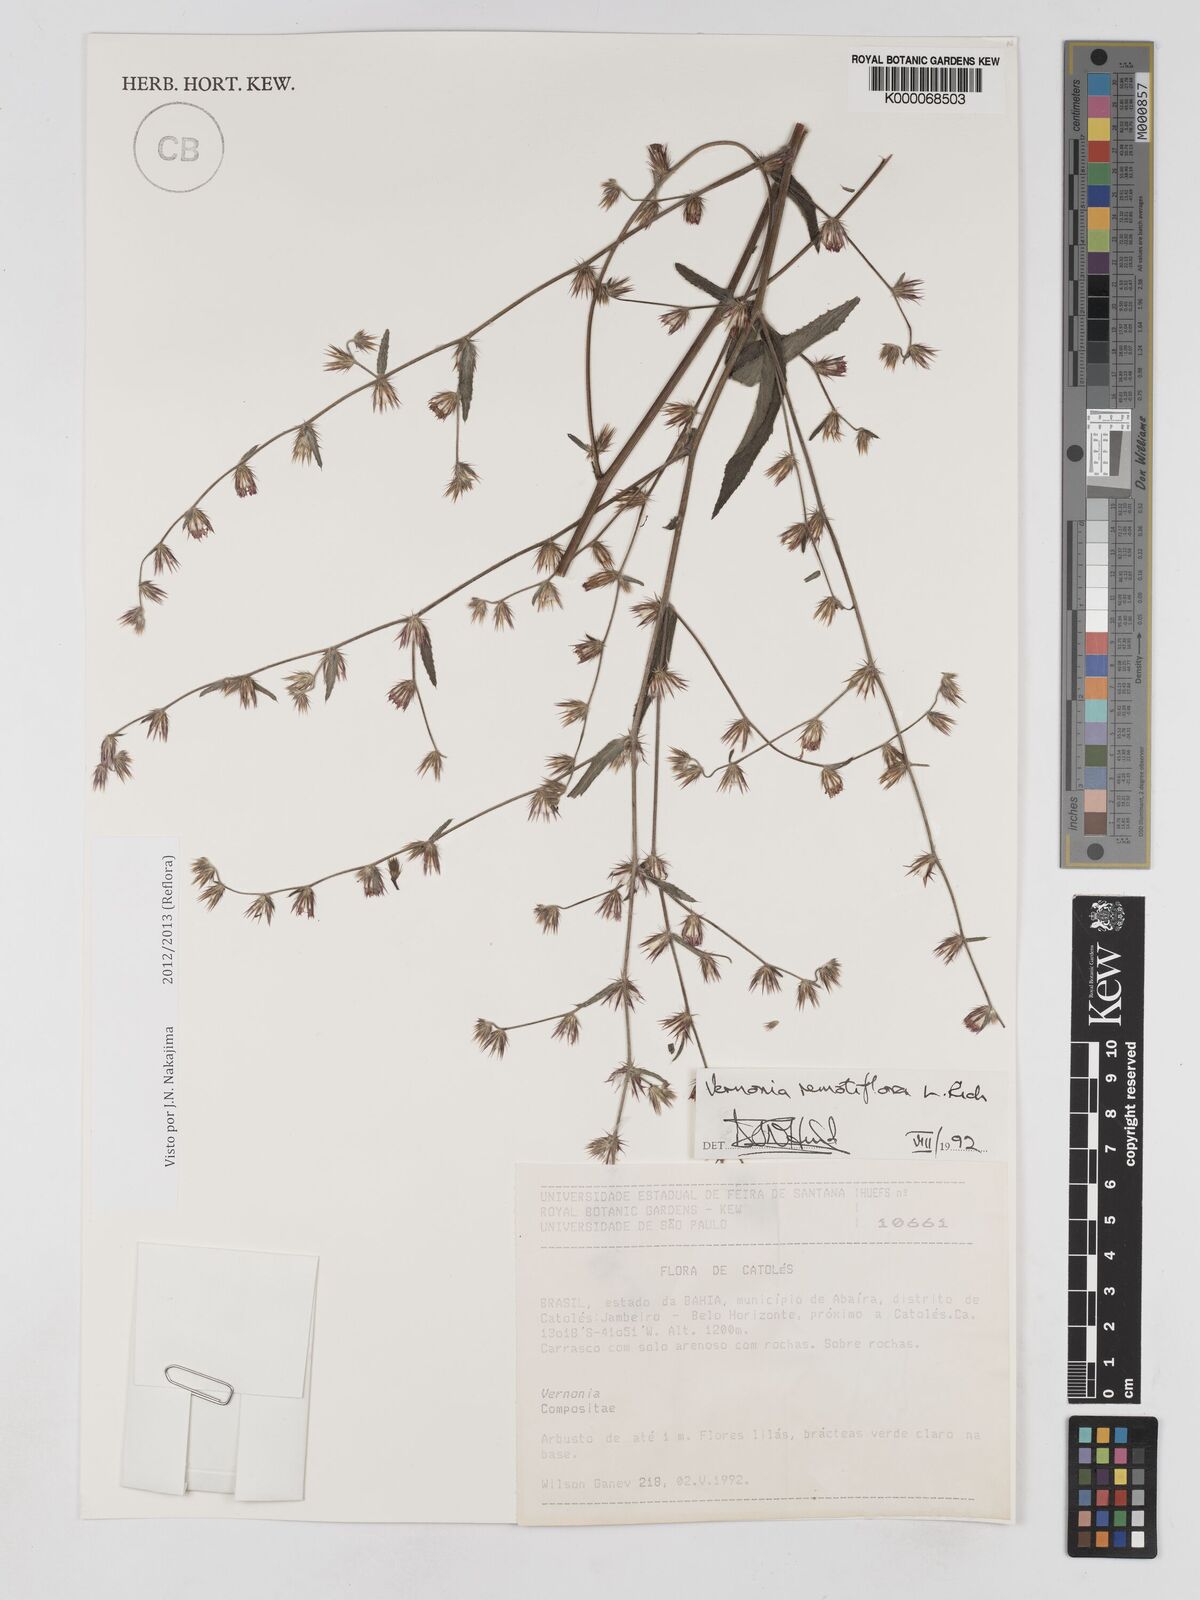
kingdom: Plantae
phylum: Tracheophyta
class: Magnoliopsida
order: Asterales
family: Asteraceae
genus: Lepidaploa
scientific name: Lepidaploa remotiflora
